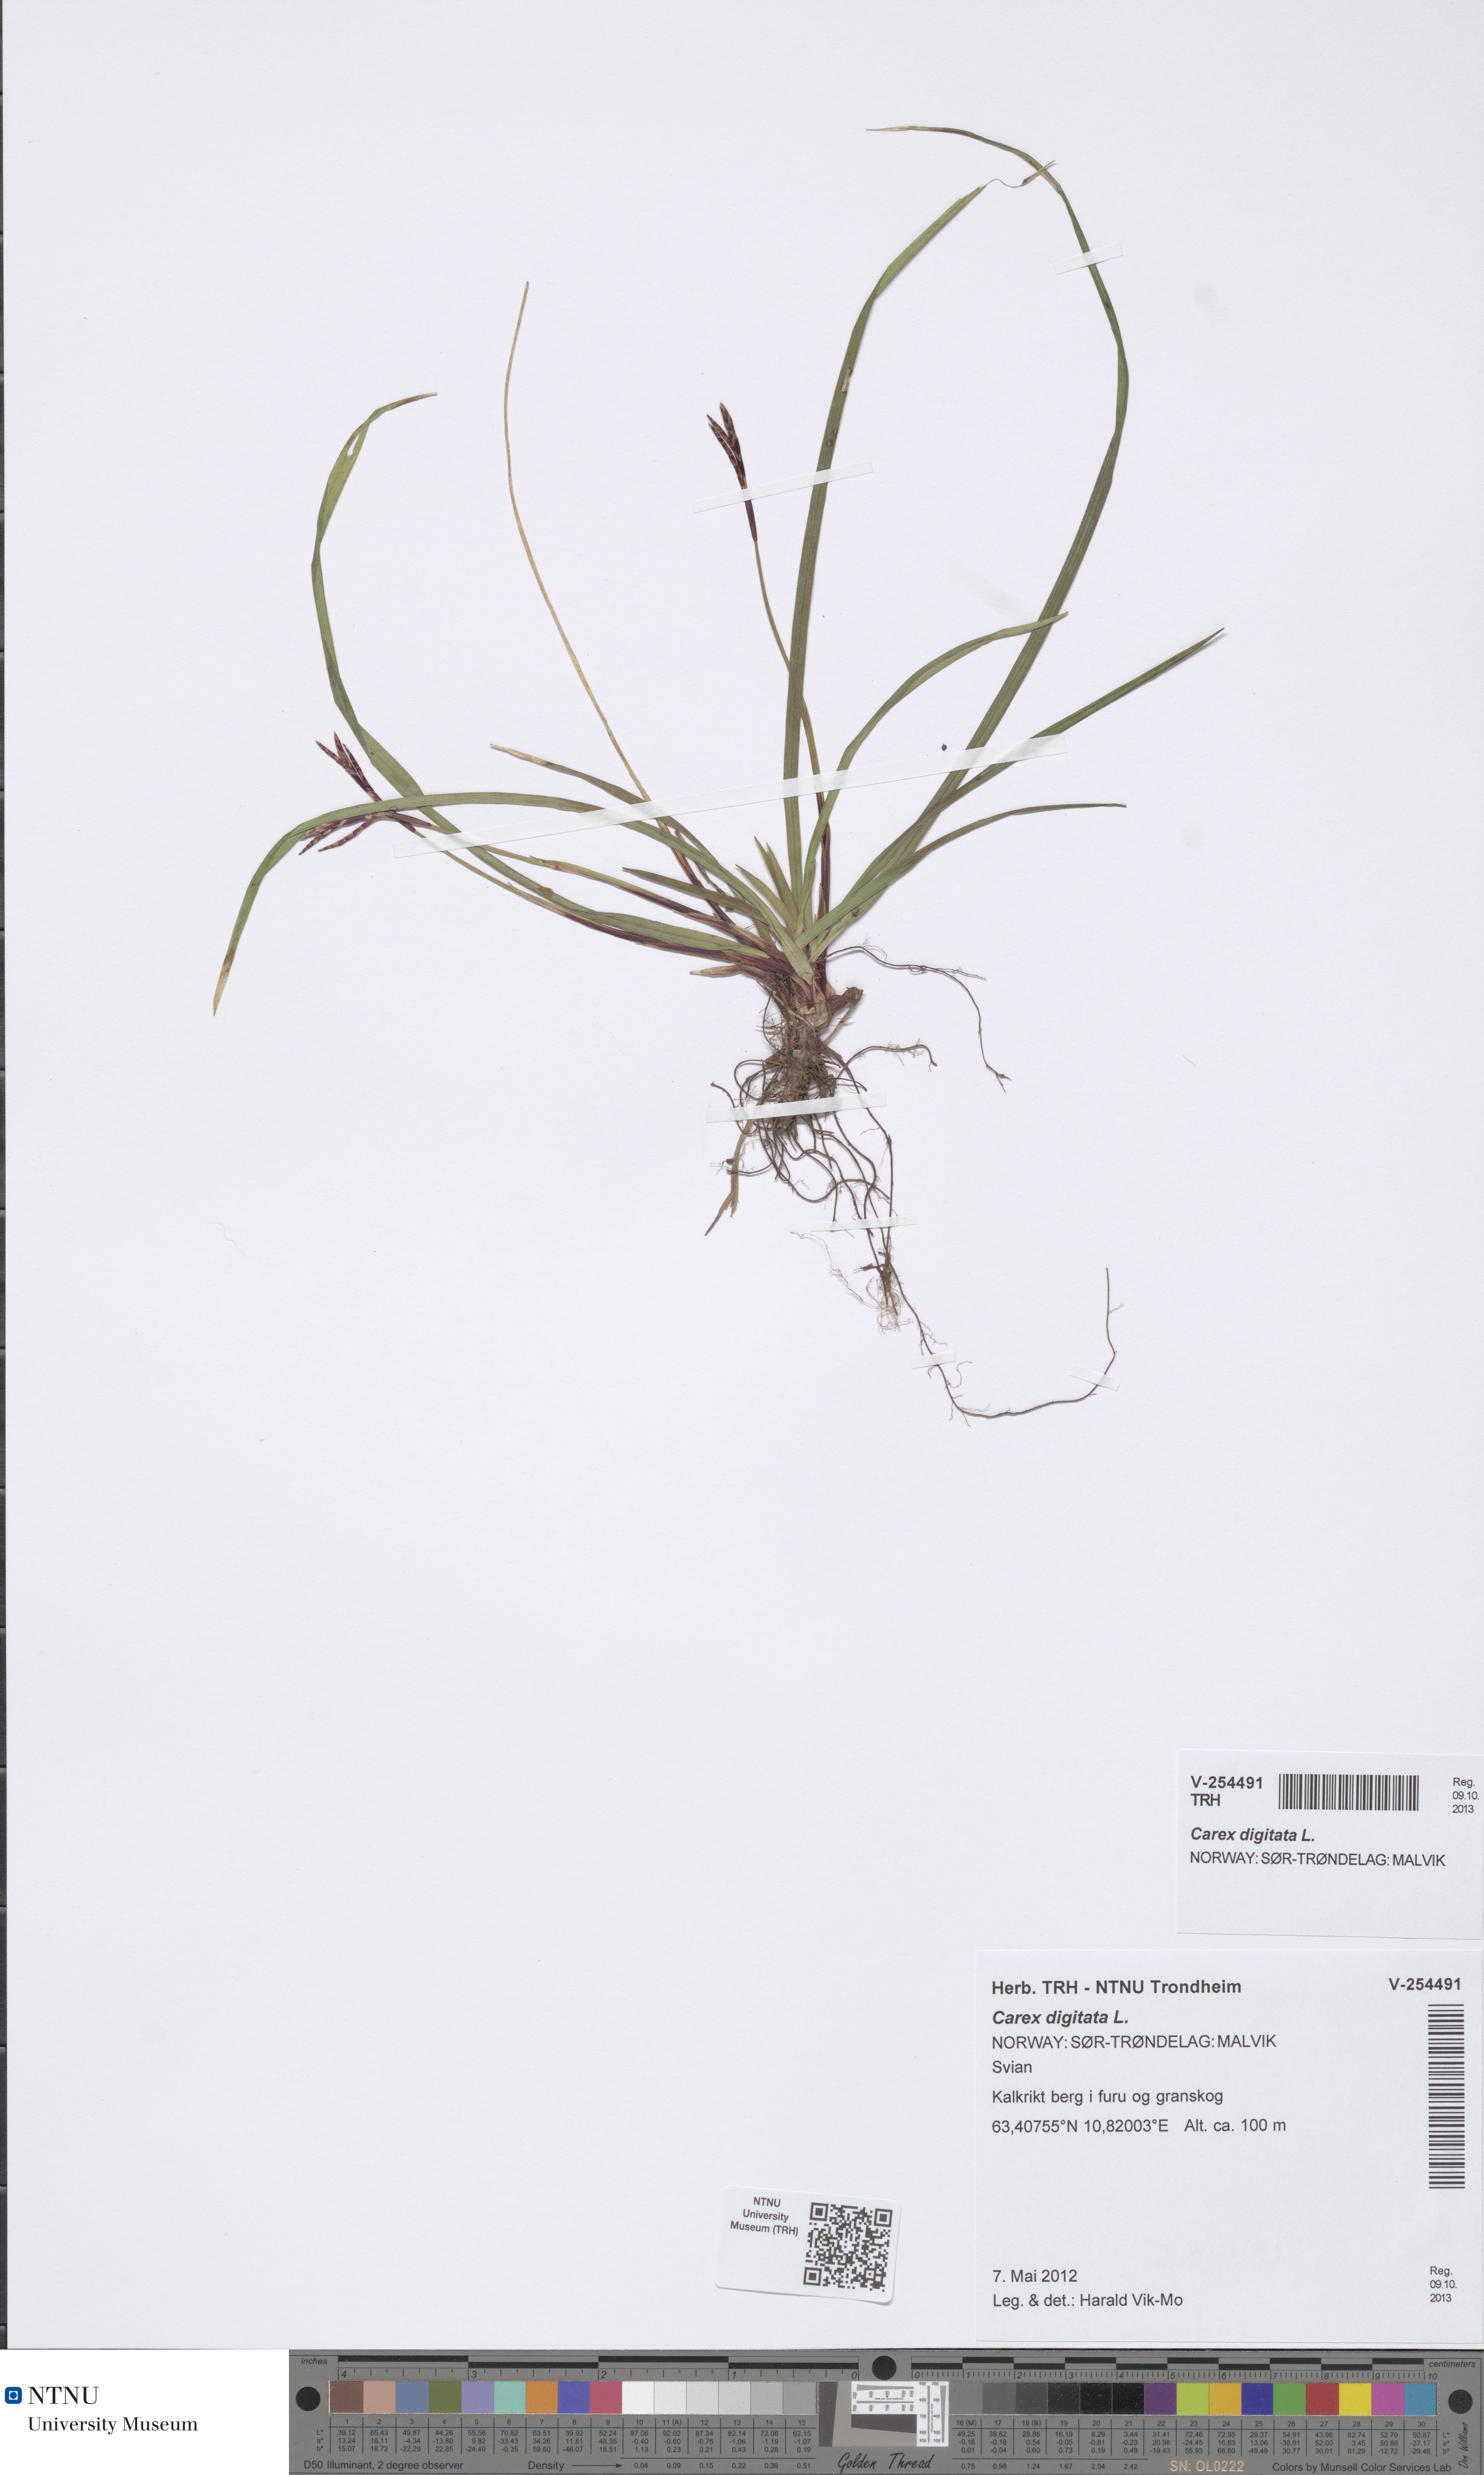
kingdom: Plantae
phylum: Tracheophyta
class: Liliopsida
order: Poales
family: Cyperaceae
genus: Carex
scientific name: Carex digitata
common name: Fingered sedge
